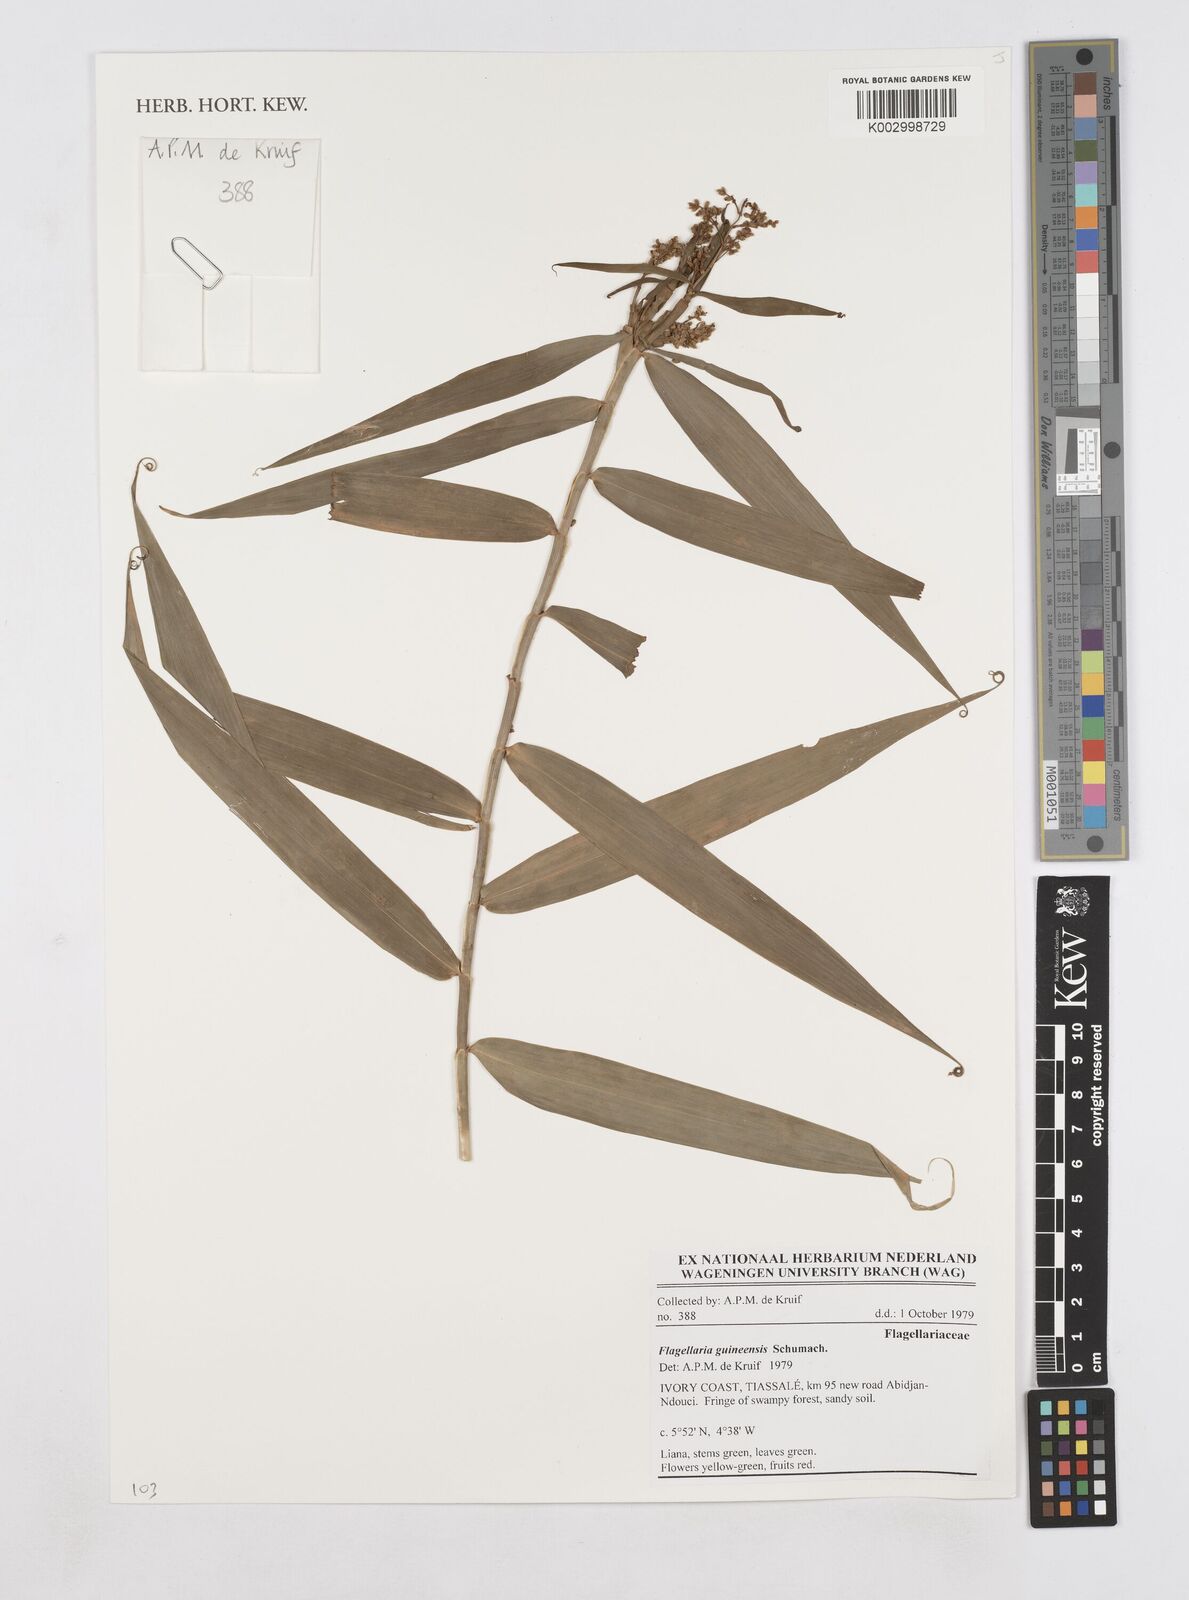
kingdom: Plantae
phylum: Tracheophyta
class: Liliopsida
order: Poales
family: Flagellariaceae
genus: Flagellaria
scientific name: Flagellaria guineensis
